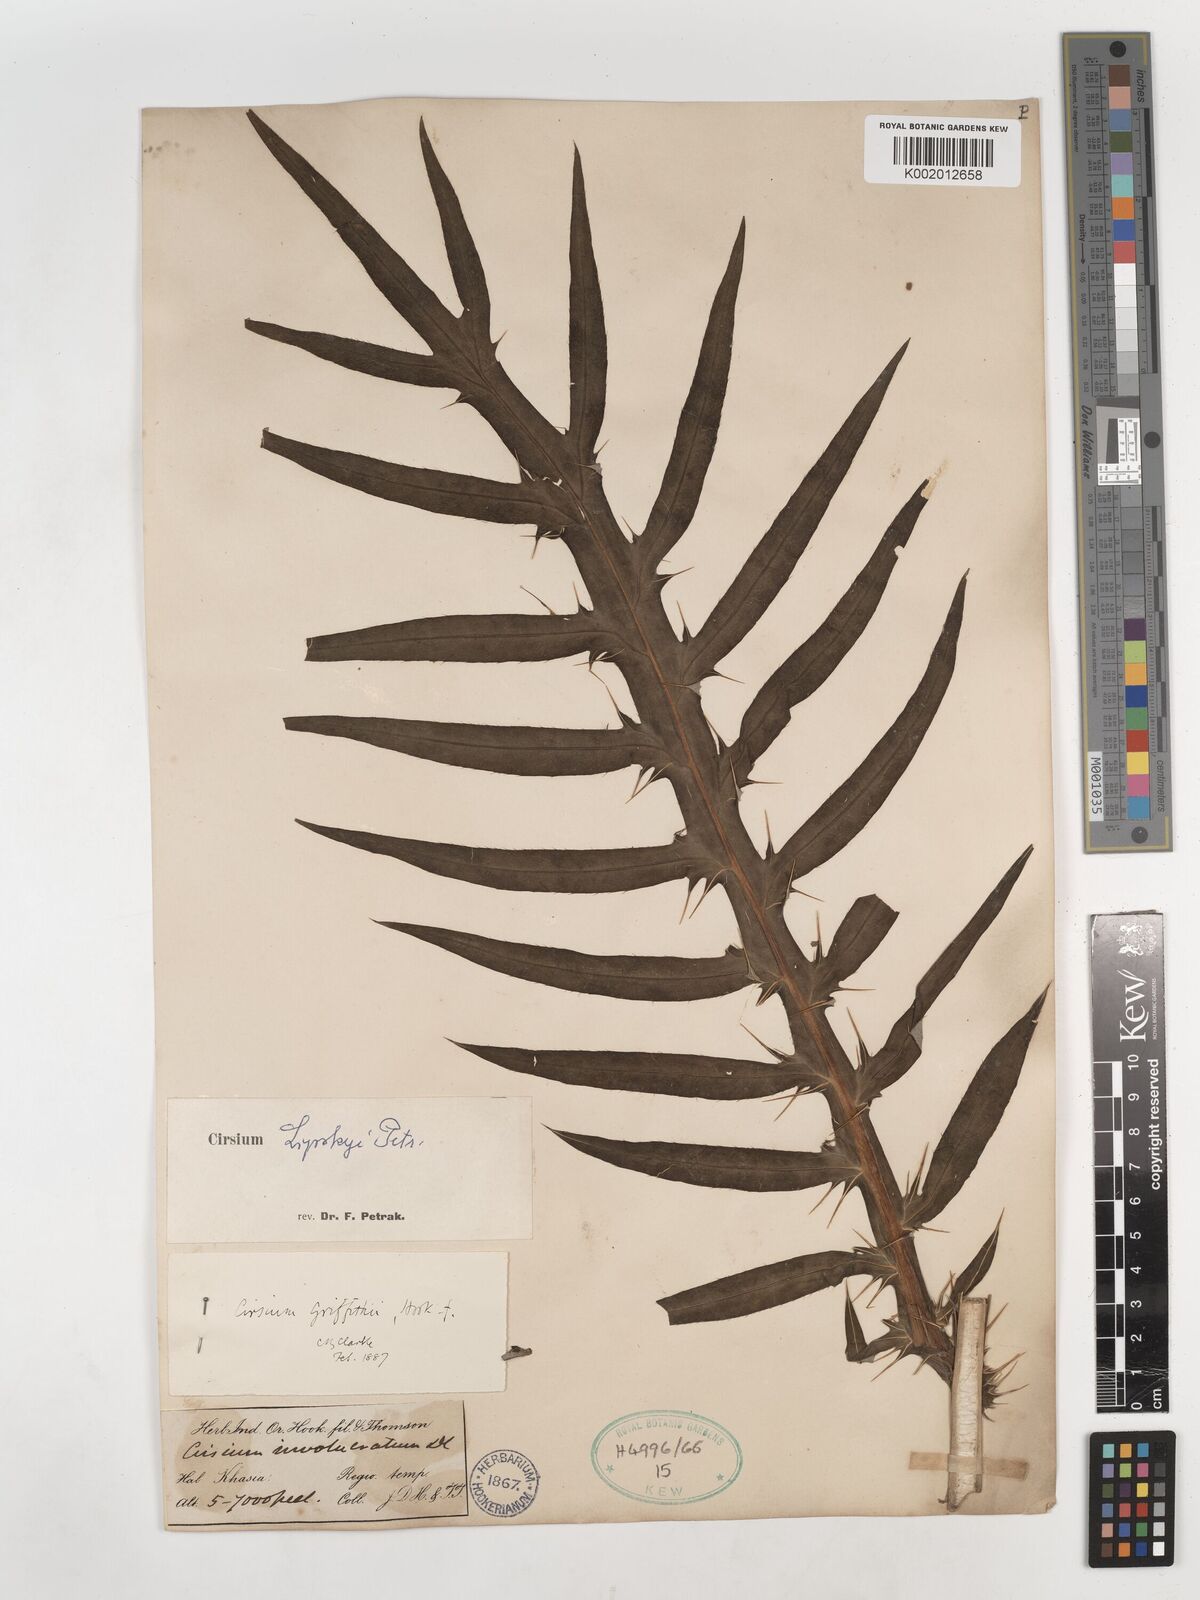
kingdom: Plantae
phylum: Tracheophyta
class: Magnoliopsida
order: Asterales
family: Asteraceae
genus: Cirsium
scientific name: Cirsium lipskyi
